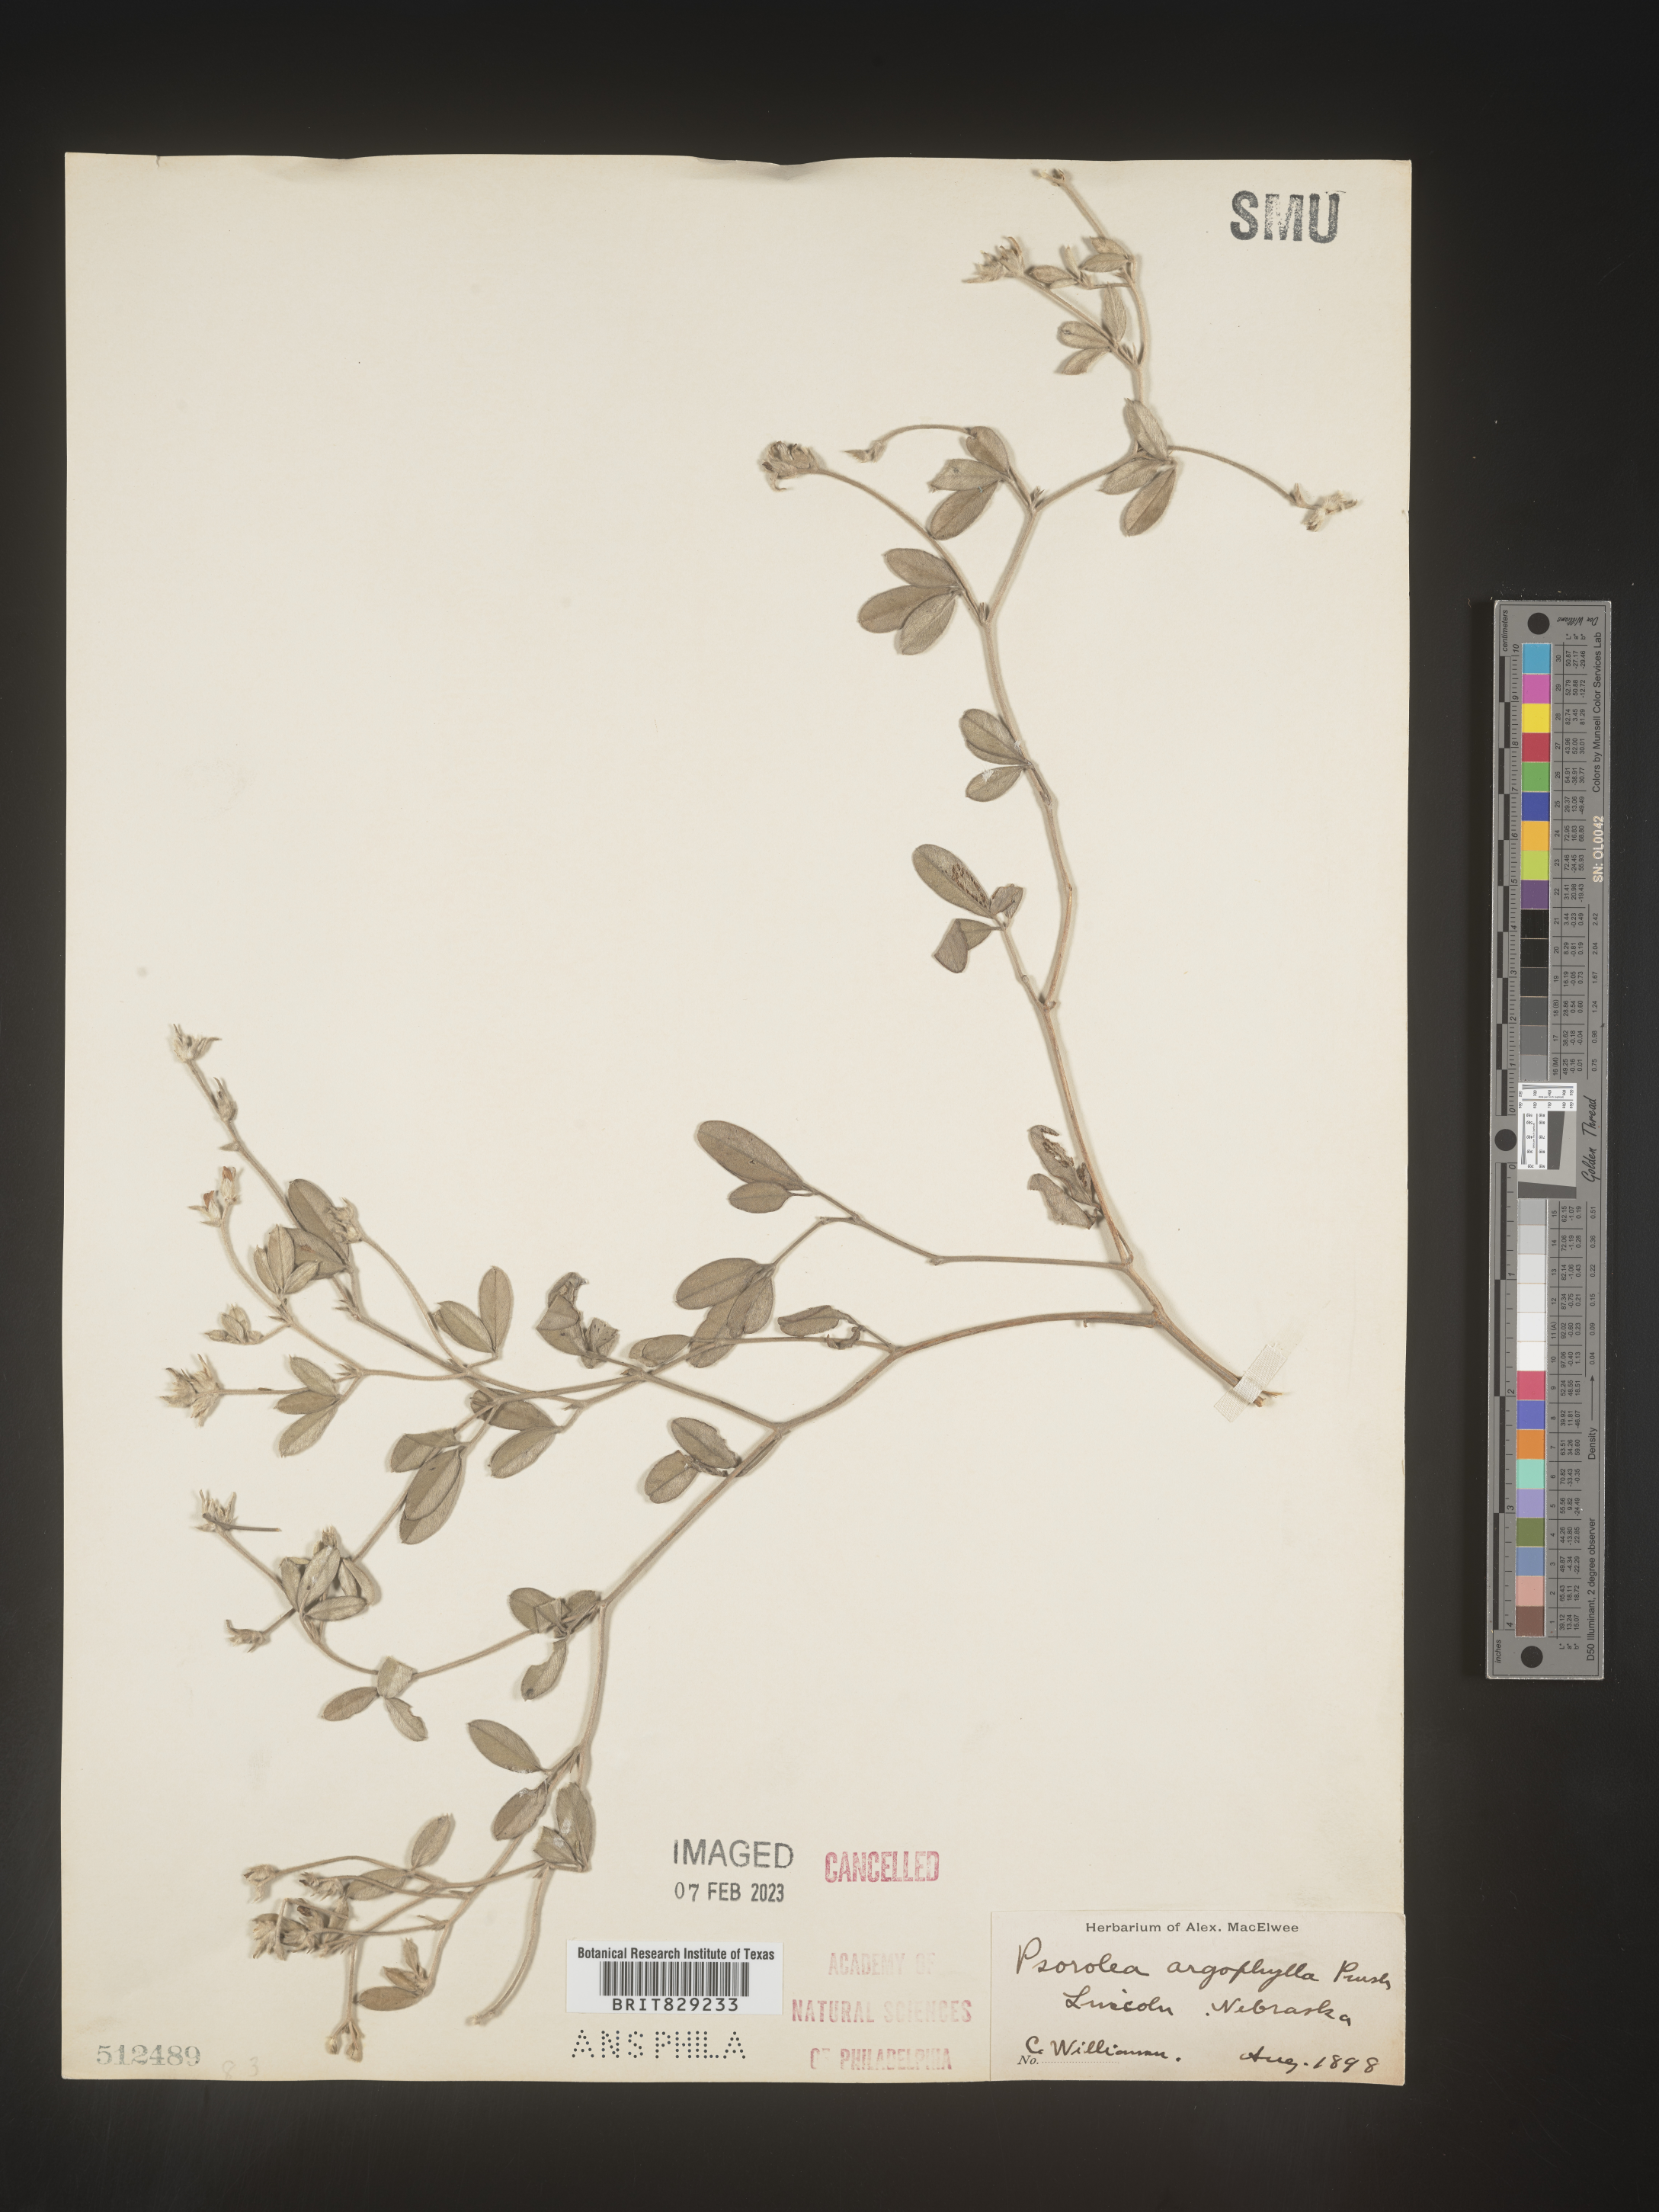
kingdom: Plantae
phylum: Tracheophyta
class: Magnoliopsida
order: Fabales
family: Fabaceae
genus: Pediomelum
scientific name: Pediomelum argophyllum
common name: Silver-leaved indian breadroot
